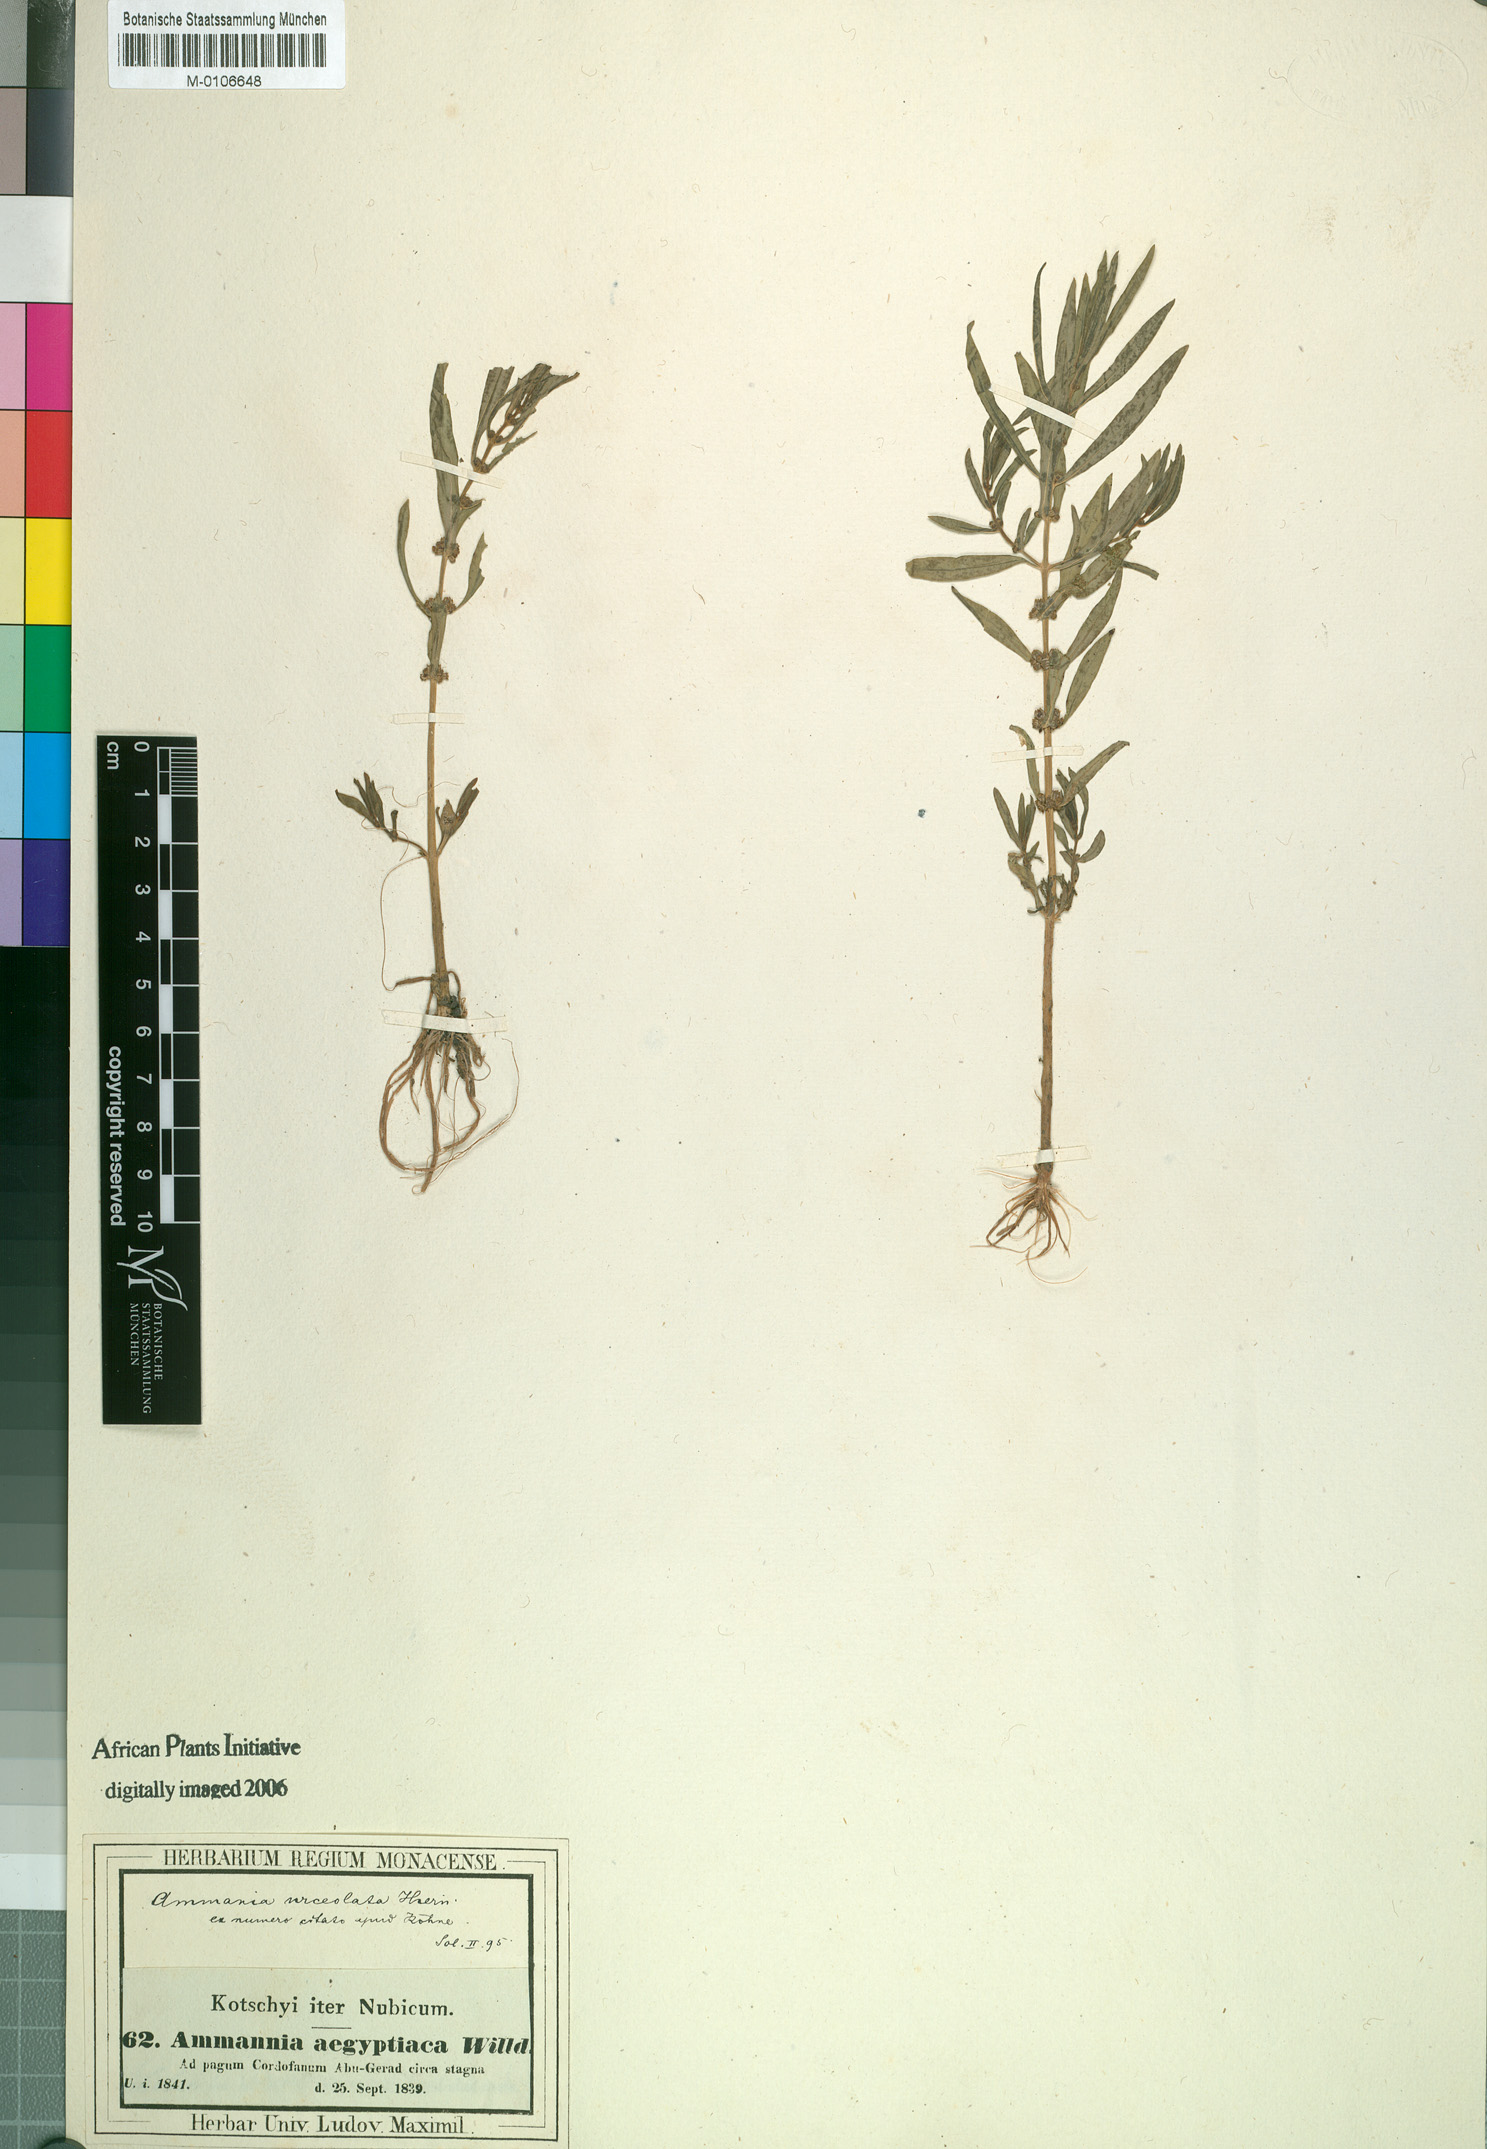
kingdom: Plantae
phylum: Tracheophyta
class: Magnoliopsida
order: Myrtales
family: Lythraceae
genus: Ammannia
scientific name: Ammannia urceolata
